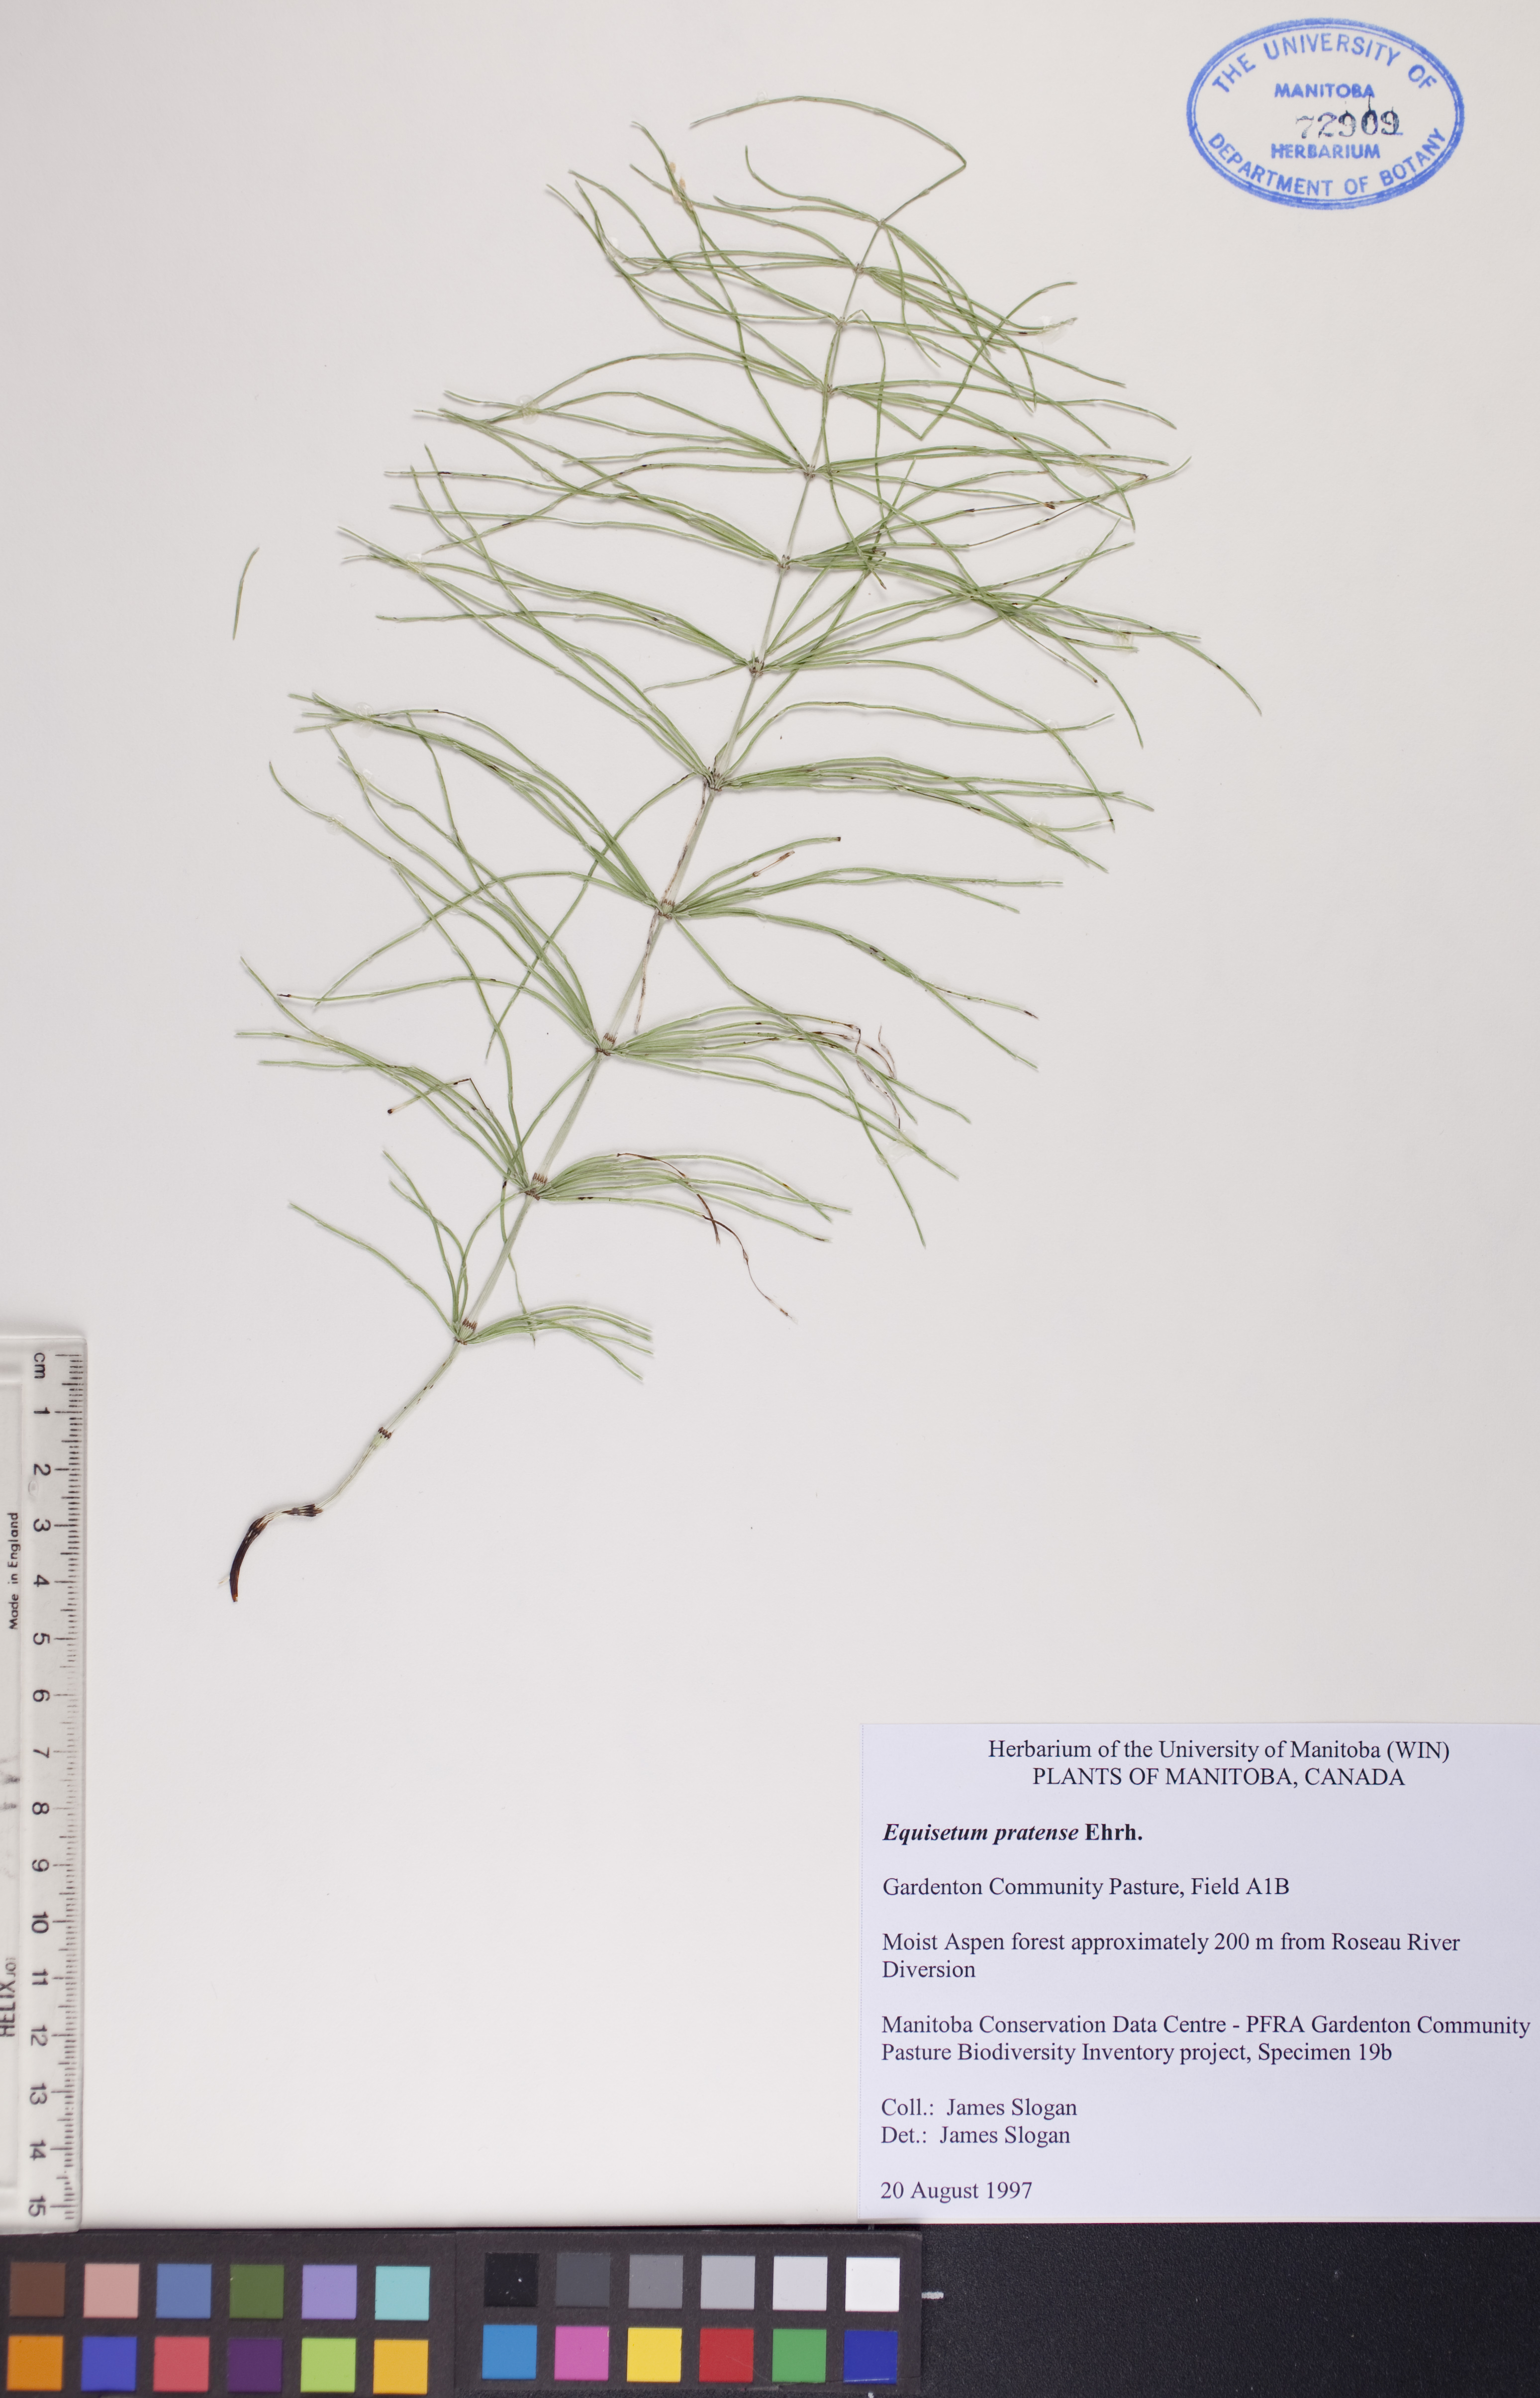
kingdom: Plantae
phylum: Tracheophyta
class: Polypodiopsida
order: Equisetales
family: Equisetaceae
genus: Equisetum
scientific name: Equisetum pratense
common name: Meadow horsetail
